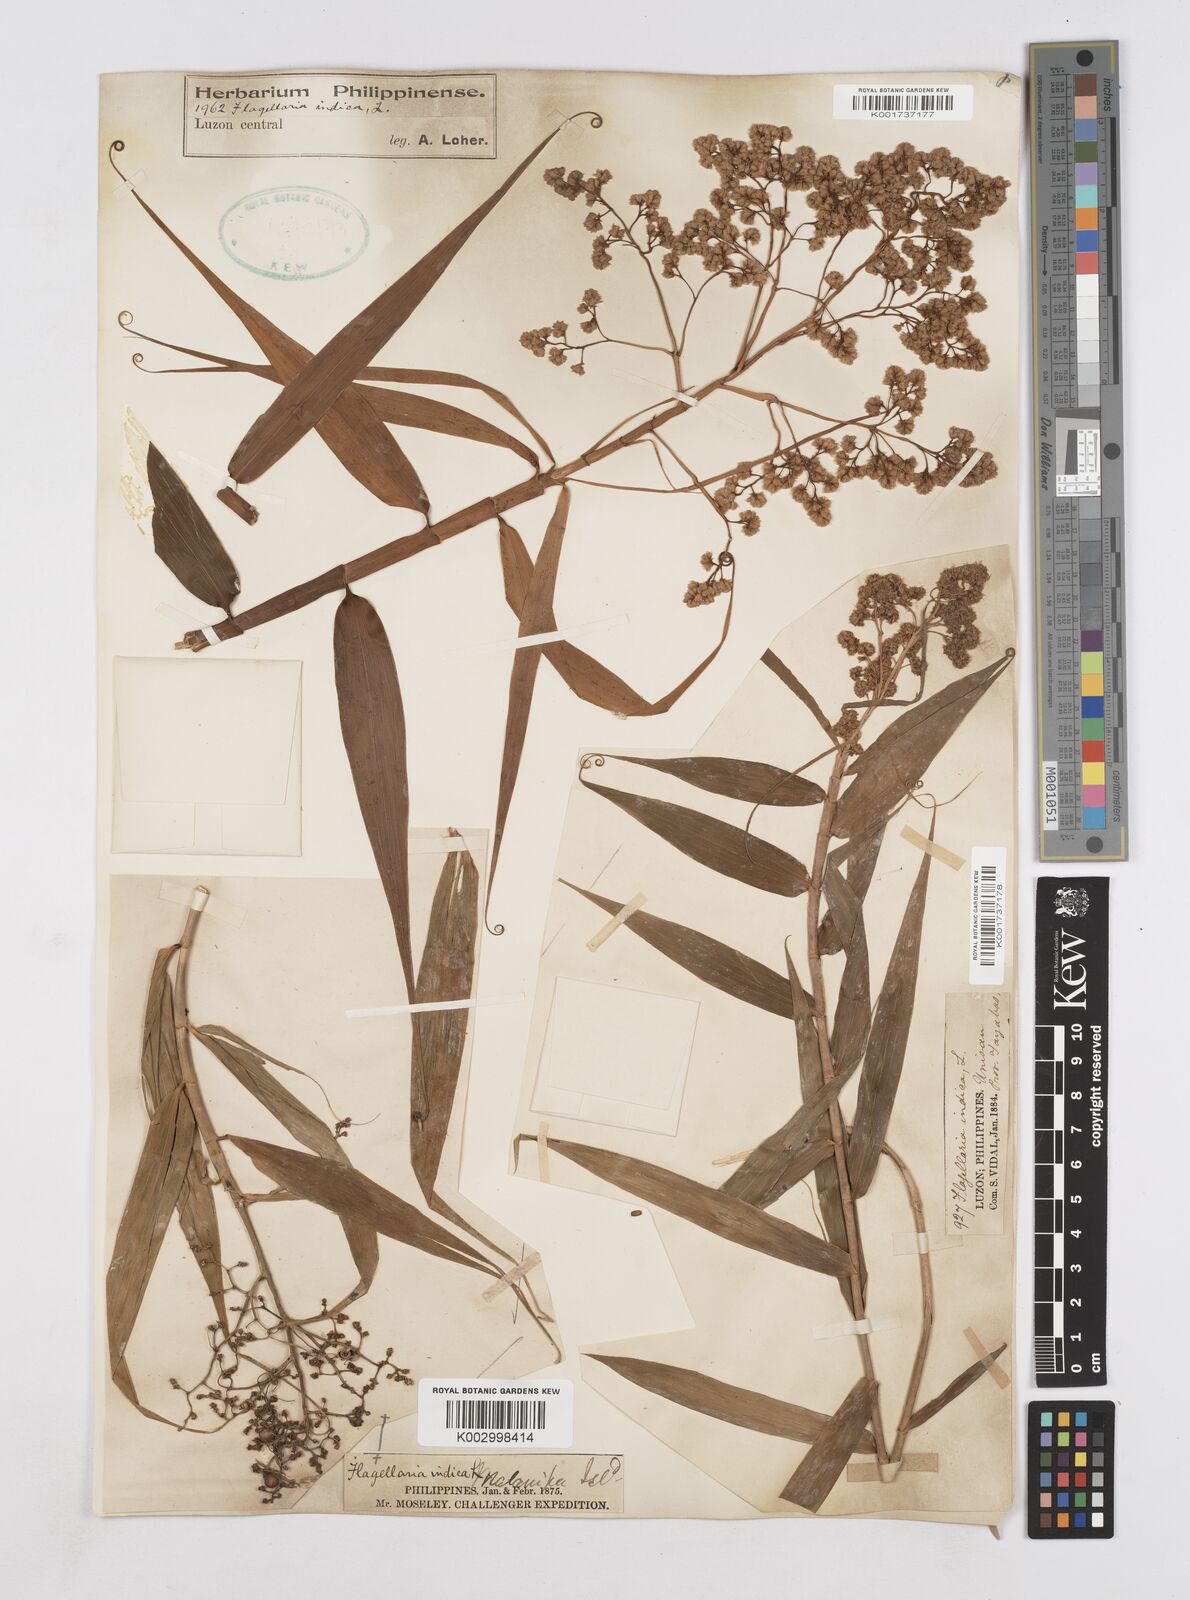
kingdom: Plantae
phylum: Tracheophyta
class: Liliopsida
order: Poales
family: Flagellariaceae
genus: Flagellaria
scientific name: Flagellaria indica
